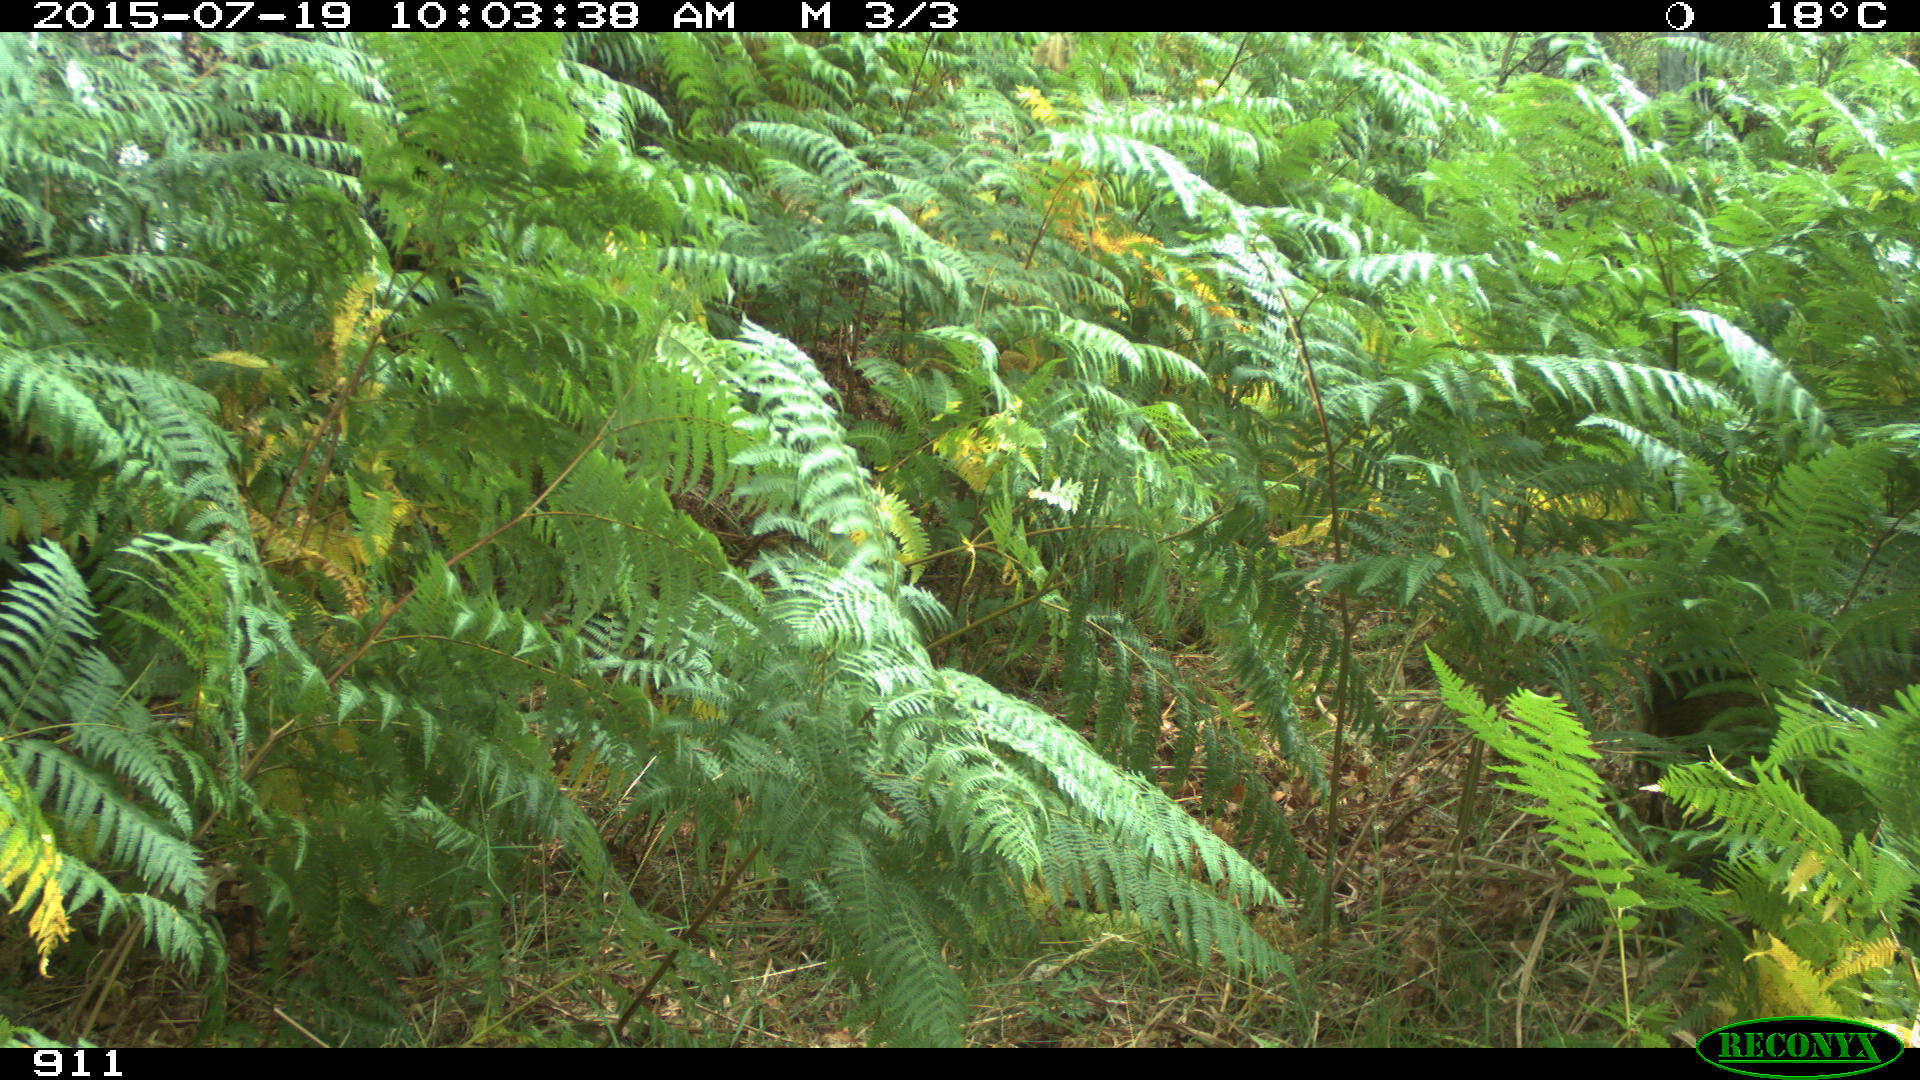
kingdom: Animalia
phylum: Chordata
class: Mammalia
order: Artiodactyla
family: Suidae
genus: Sus
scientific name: Sus scrofa
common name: Wild boar
